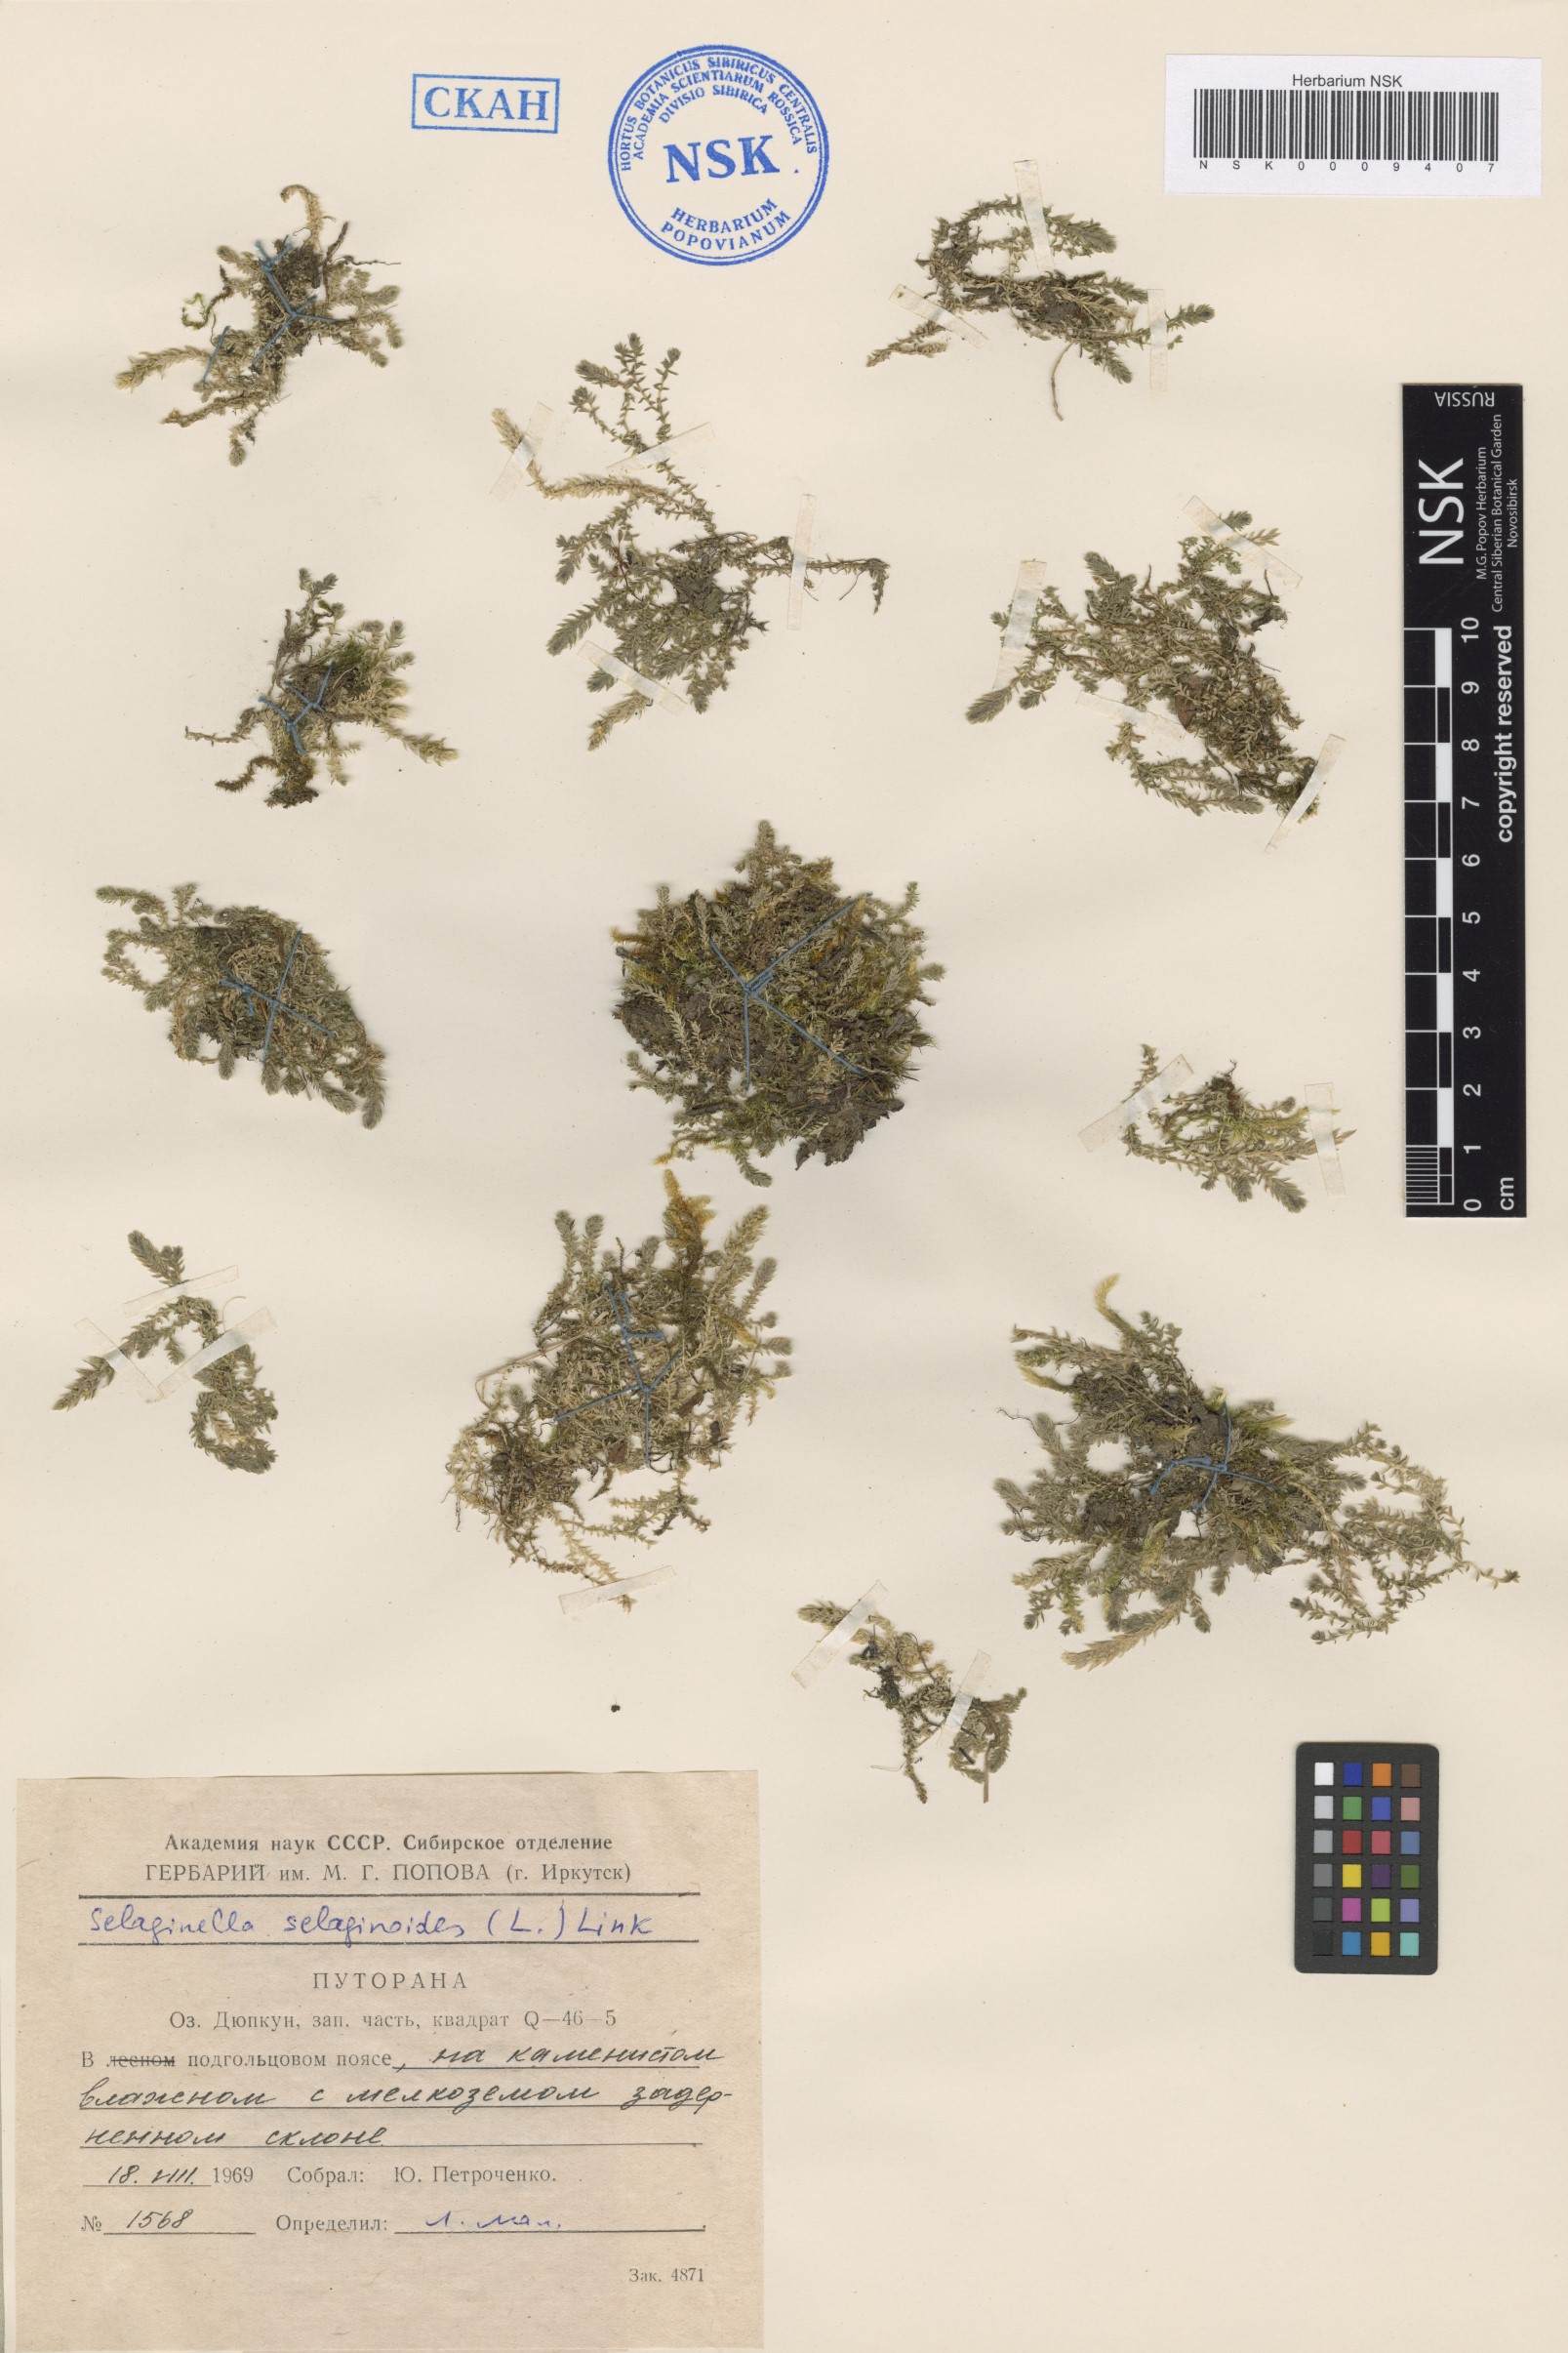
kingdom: Plantae
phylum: Tracheophyta
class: Lycopodiopsida
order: Selaginellales
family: Selaginellaceae
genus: Selaginella
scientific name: Selaginella selaginoides
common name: Prickly mountain-moss
